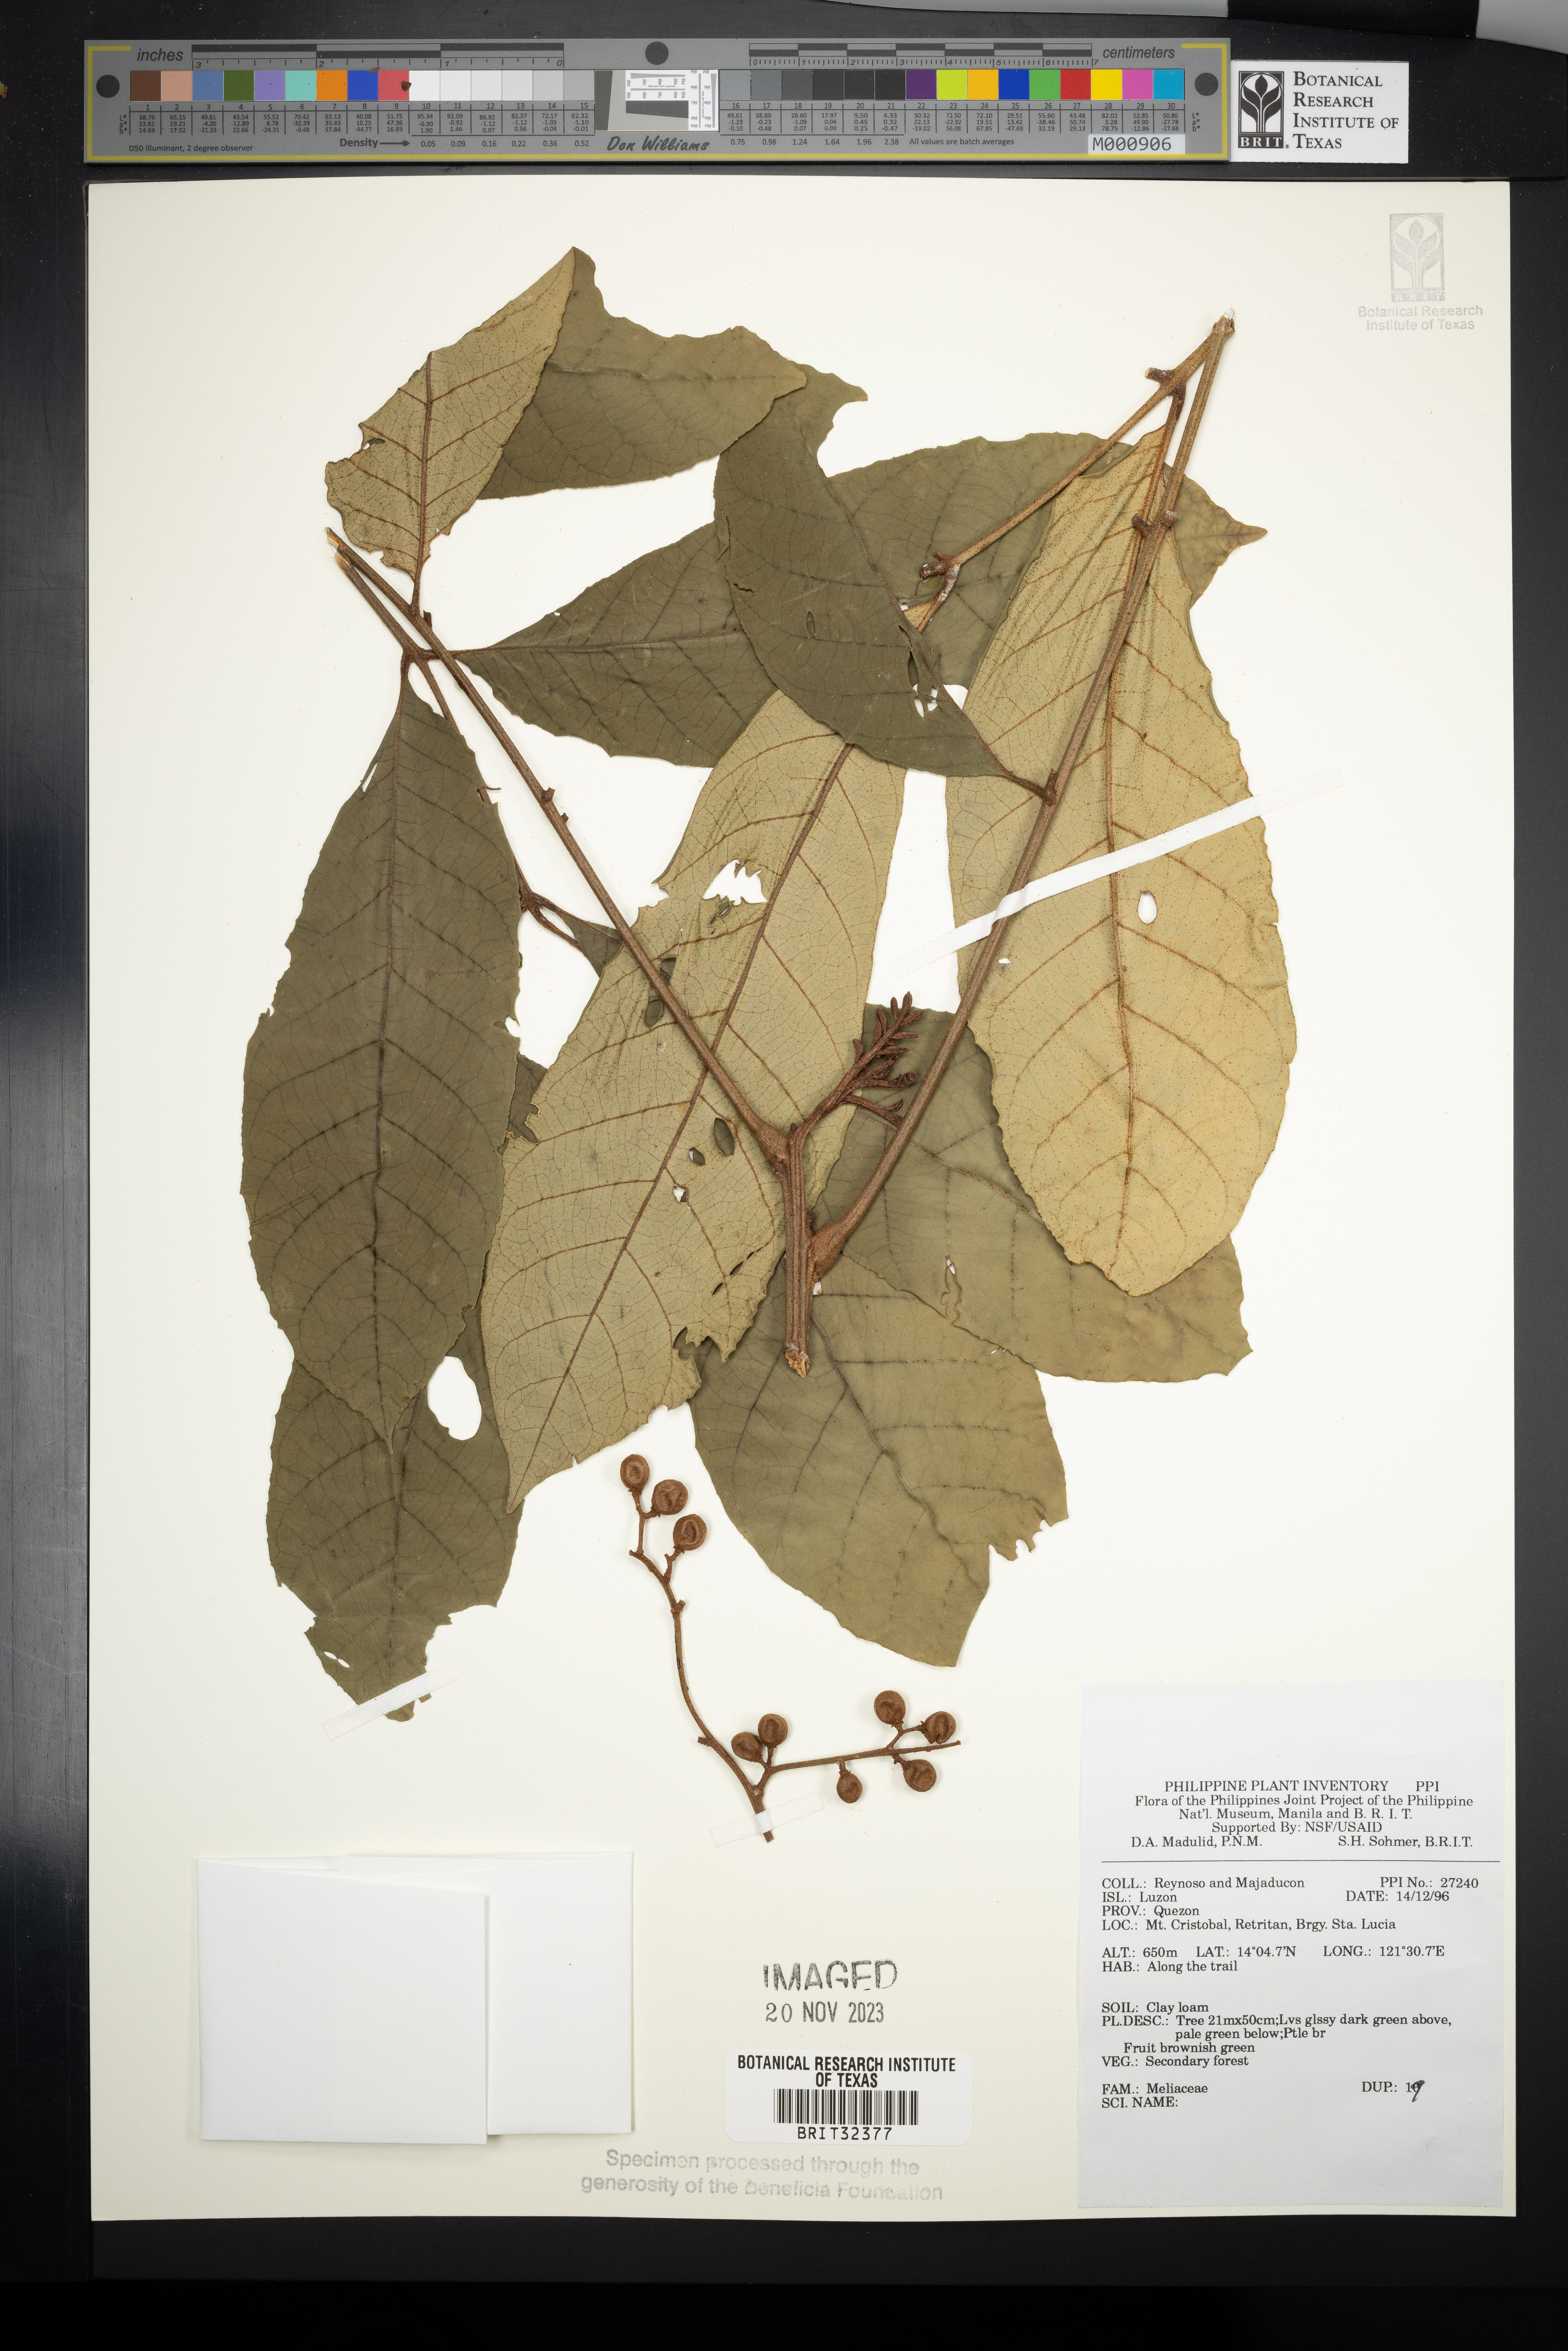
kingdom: Plantae
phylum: Tracheophyta
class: Magnoliopsida
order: Sapindales
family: Meliaceae
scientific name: Meliaceae
